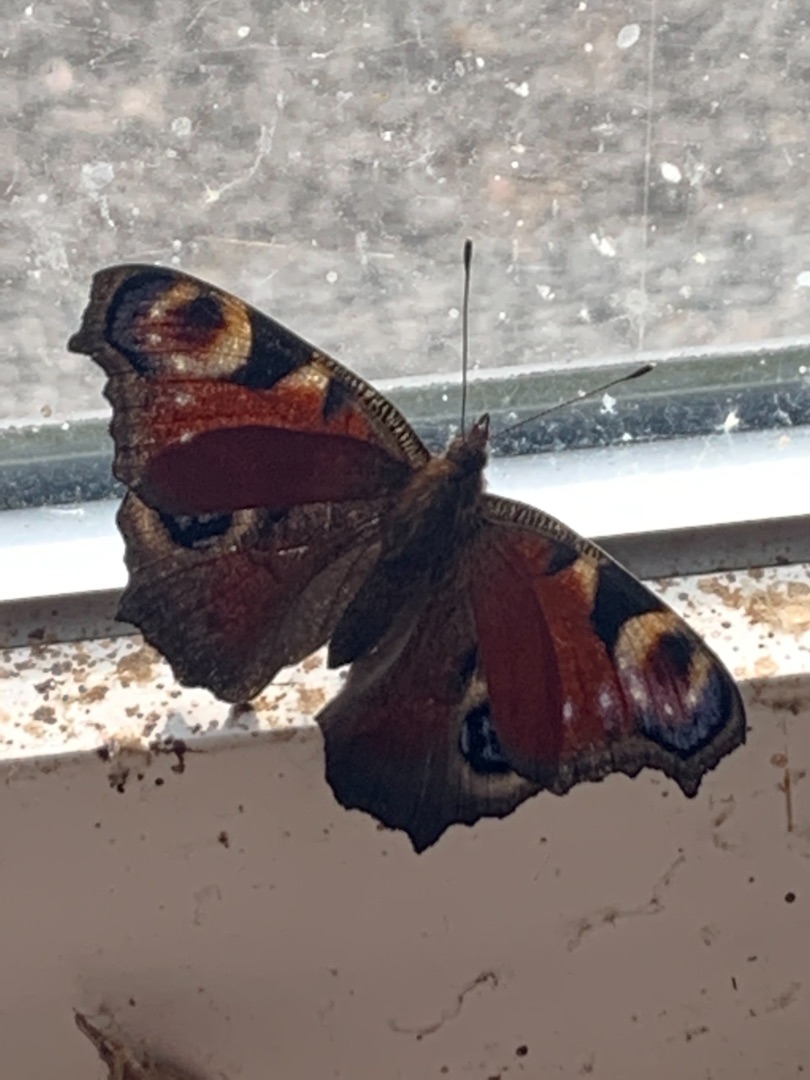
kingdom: Animalia
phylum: Arthropoda
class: Insecta
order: Lepidoptera
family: Nymphalidae
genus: Aglais
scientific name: Aglais io
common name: Dagpåfugleøje
